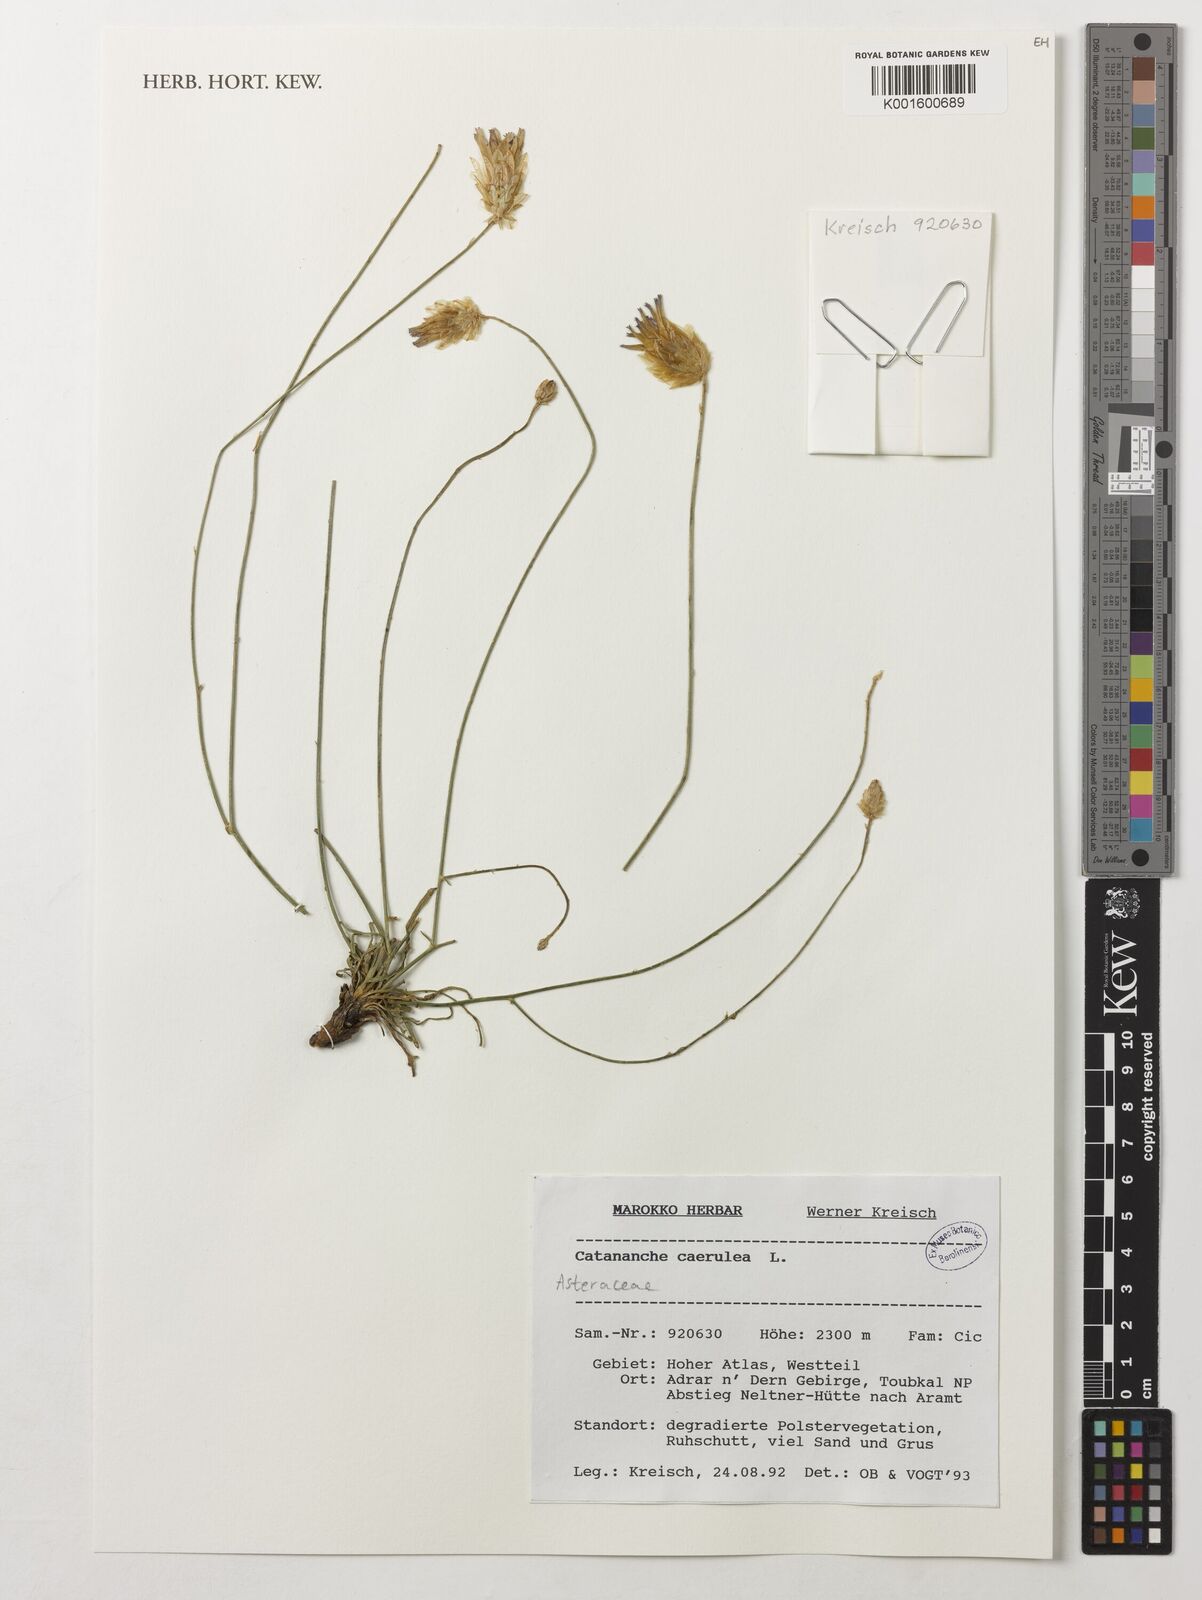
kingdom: Plantae
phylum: Tracheophyta
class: Magnoliopsida
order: Asterales
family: Asteraceae
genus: Catananche
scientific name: Catananche caerulea
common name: Blue cupidone
